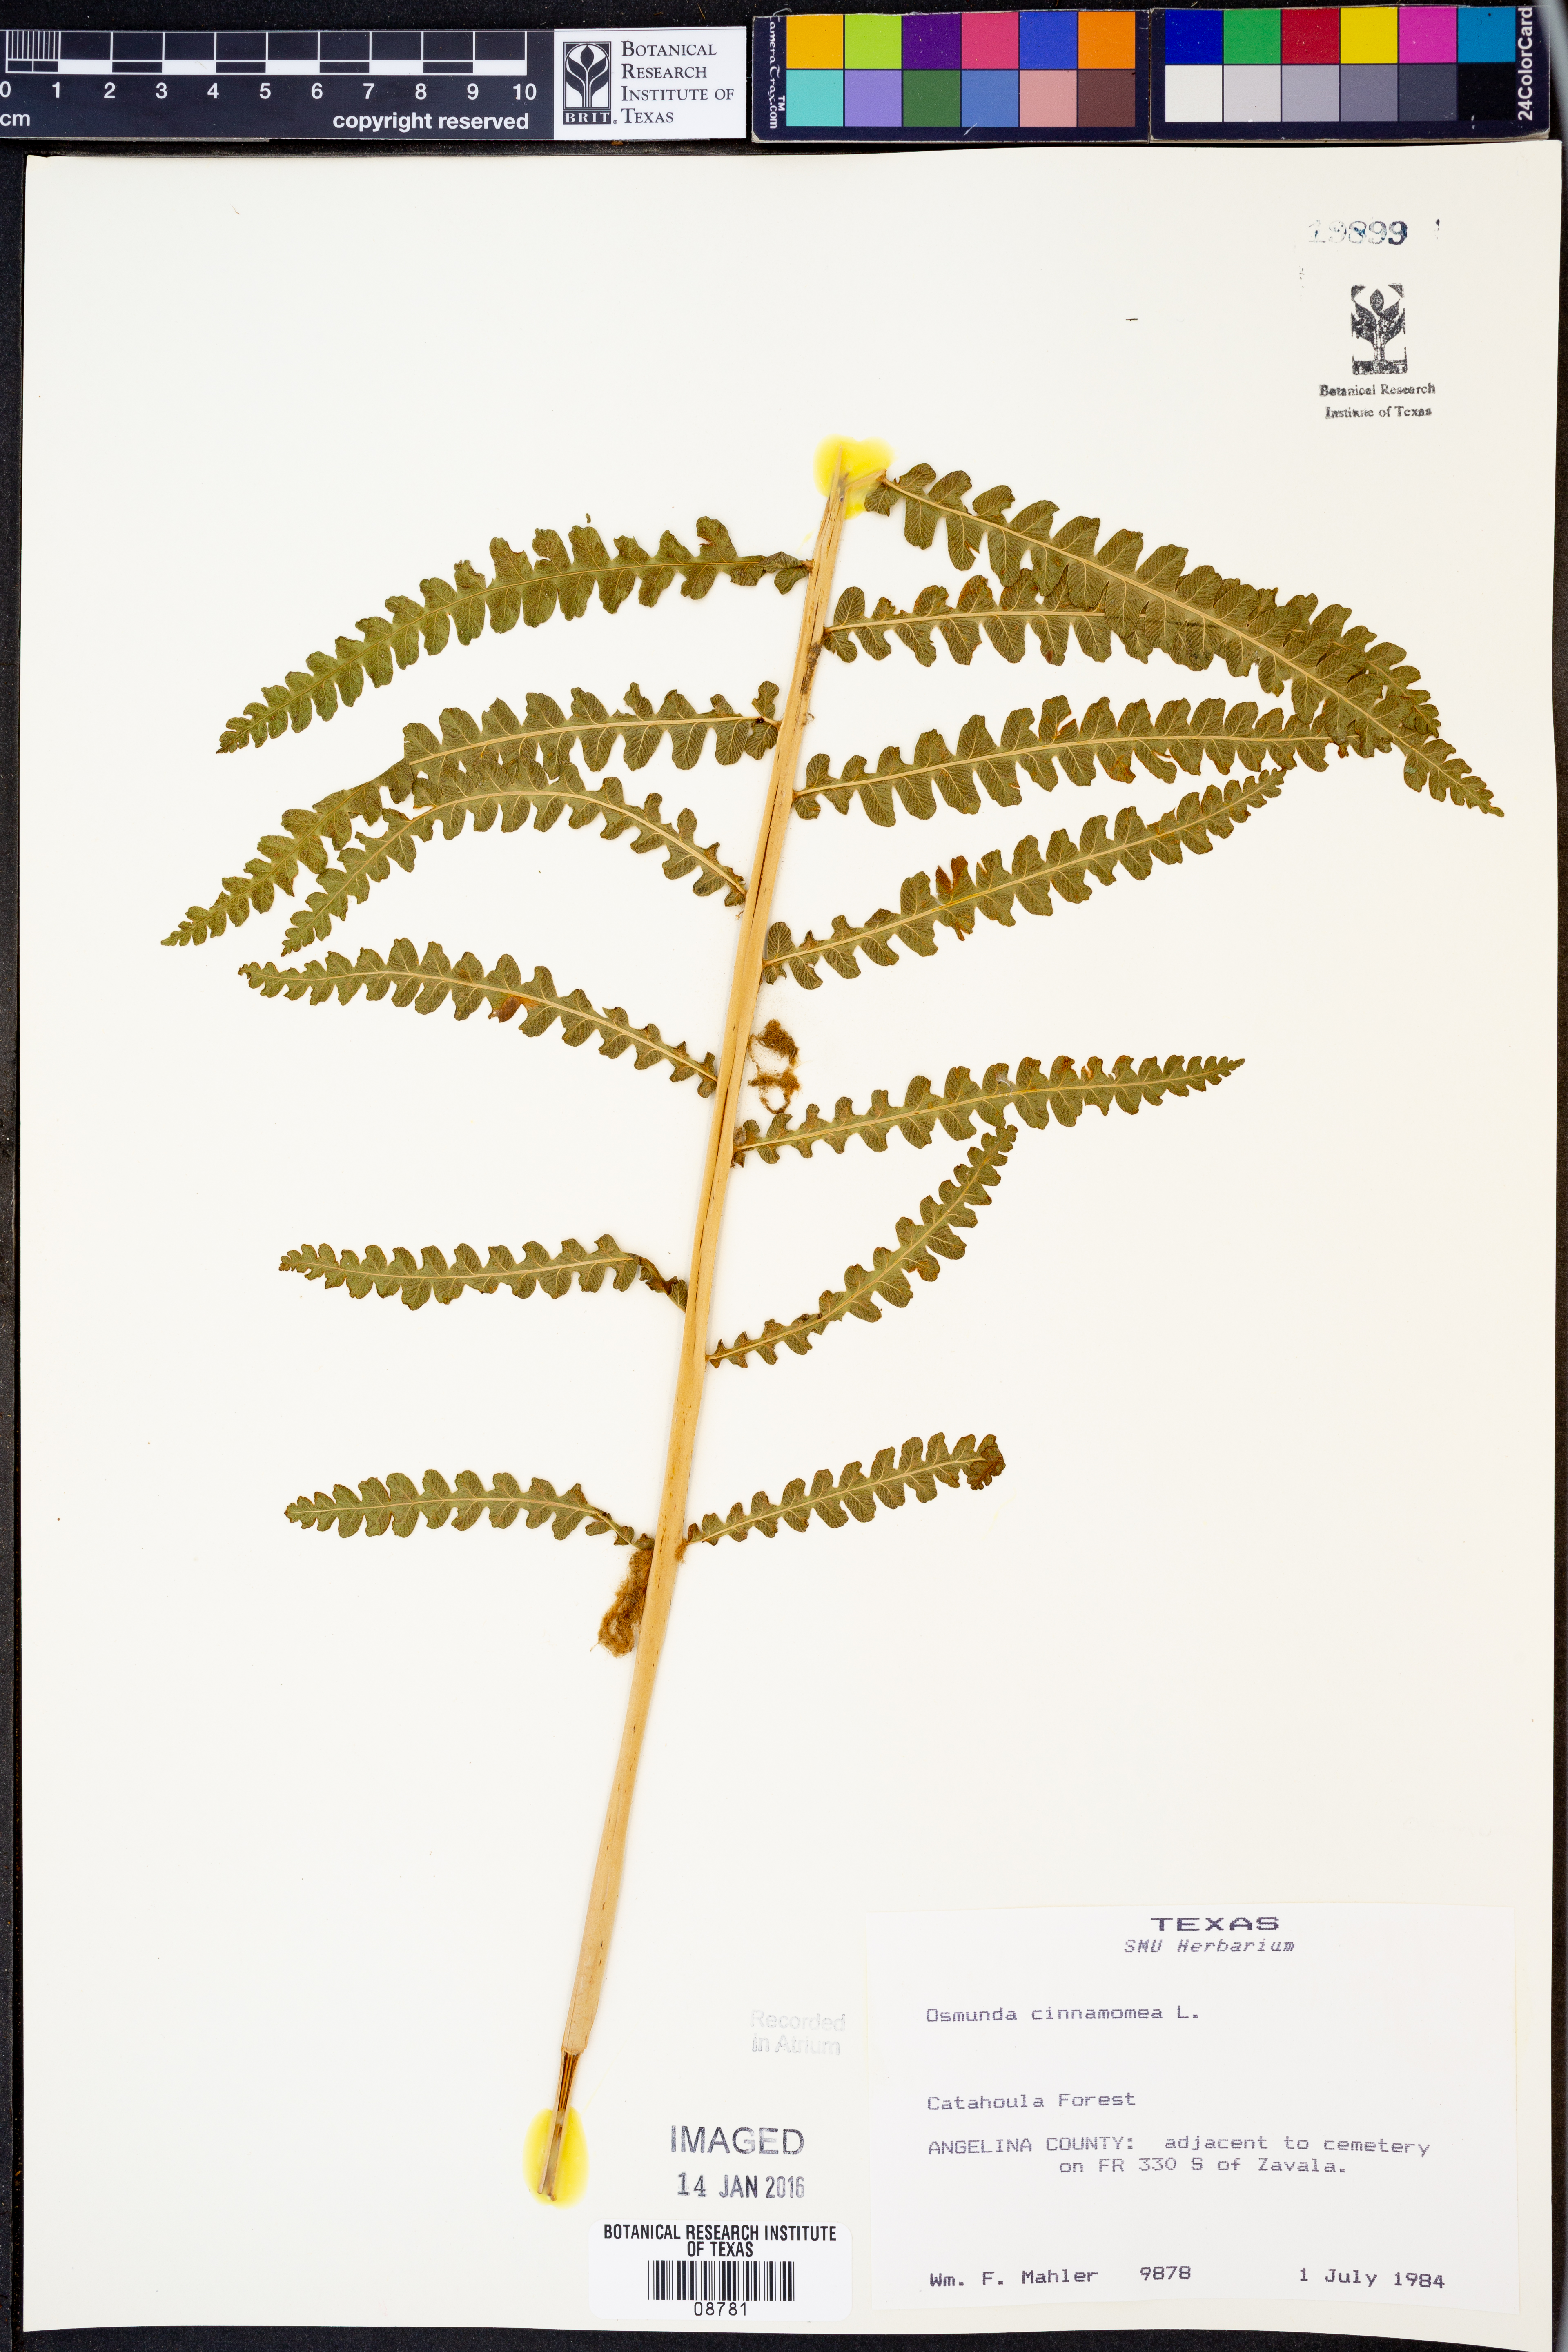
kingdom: Plantae
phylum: Tracheophyta
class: Polypodiopsida
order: Osmundales
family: Osmundaceae
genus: Osmundastrum
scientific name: Osmundastrum cinnamomeum
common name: Cinnamon fern
